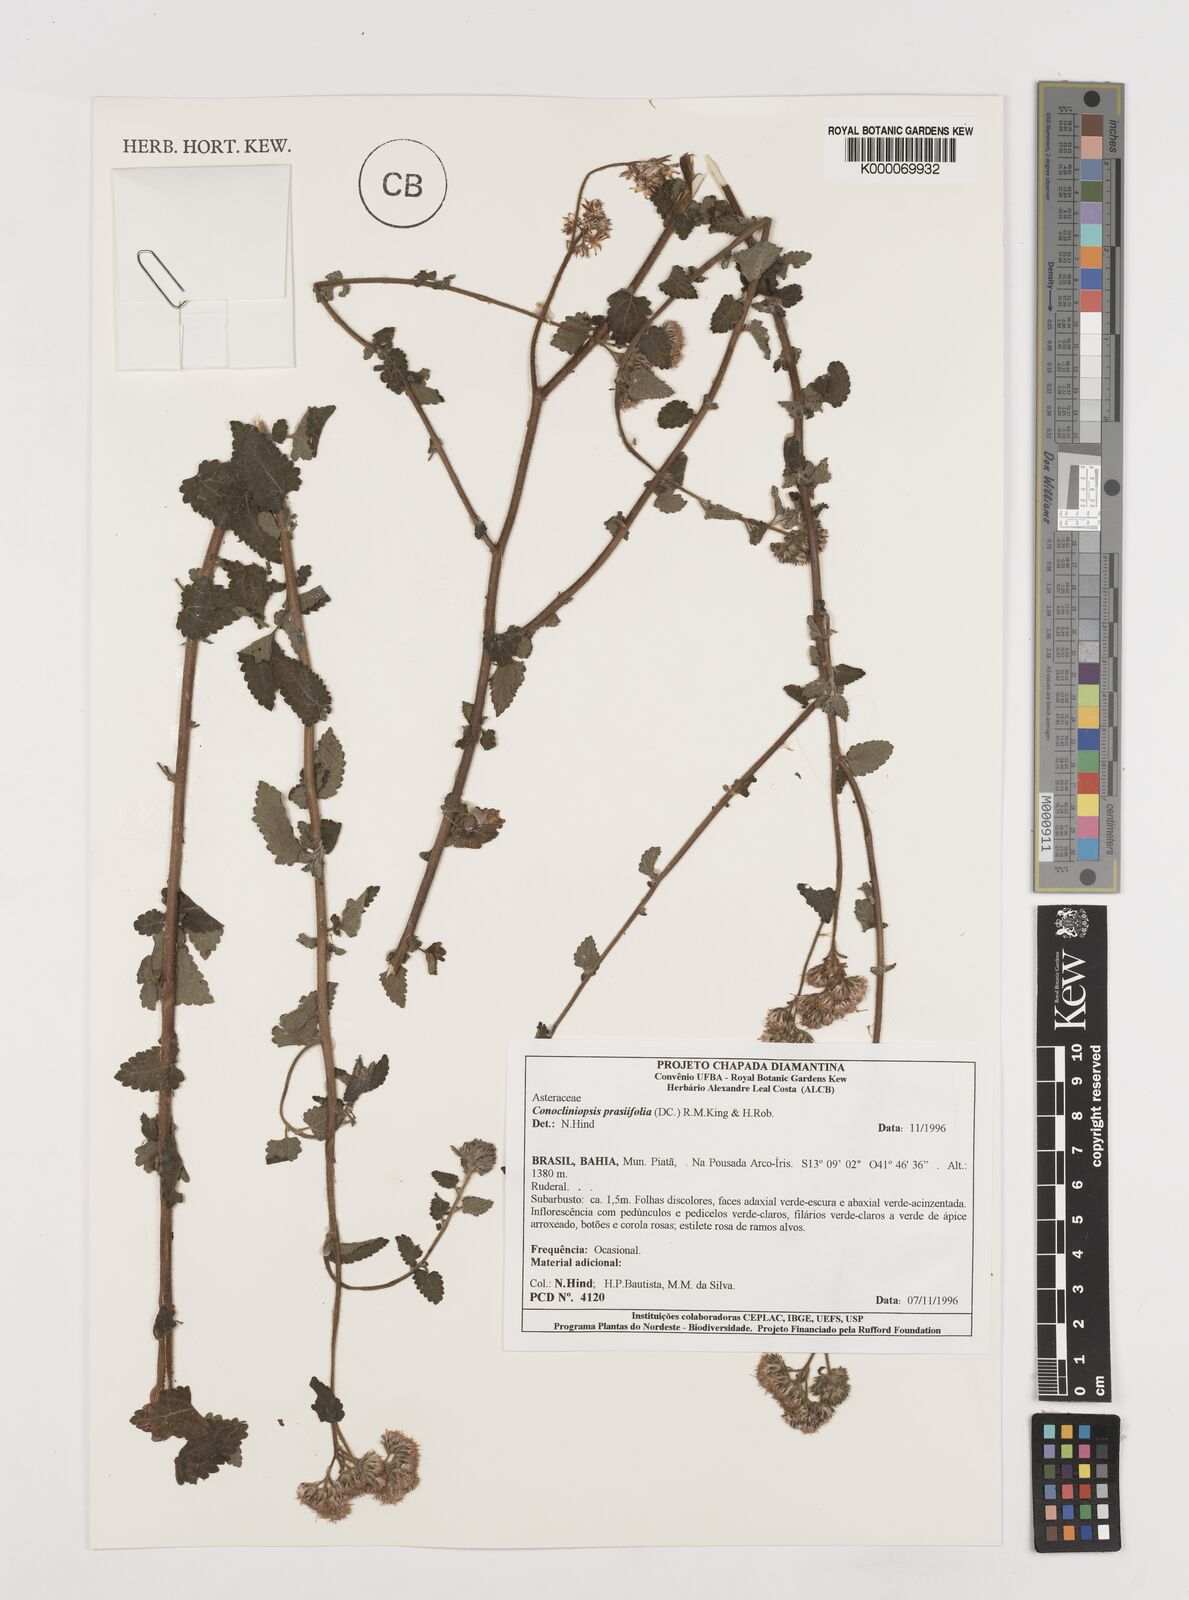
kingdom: Plantae
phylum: Tracheophyta
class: Magnoliopsida
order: Asterales
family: Asteraceae
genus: Conocliniopsis
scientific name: Conocliniopsis grossedentata
